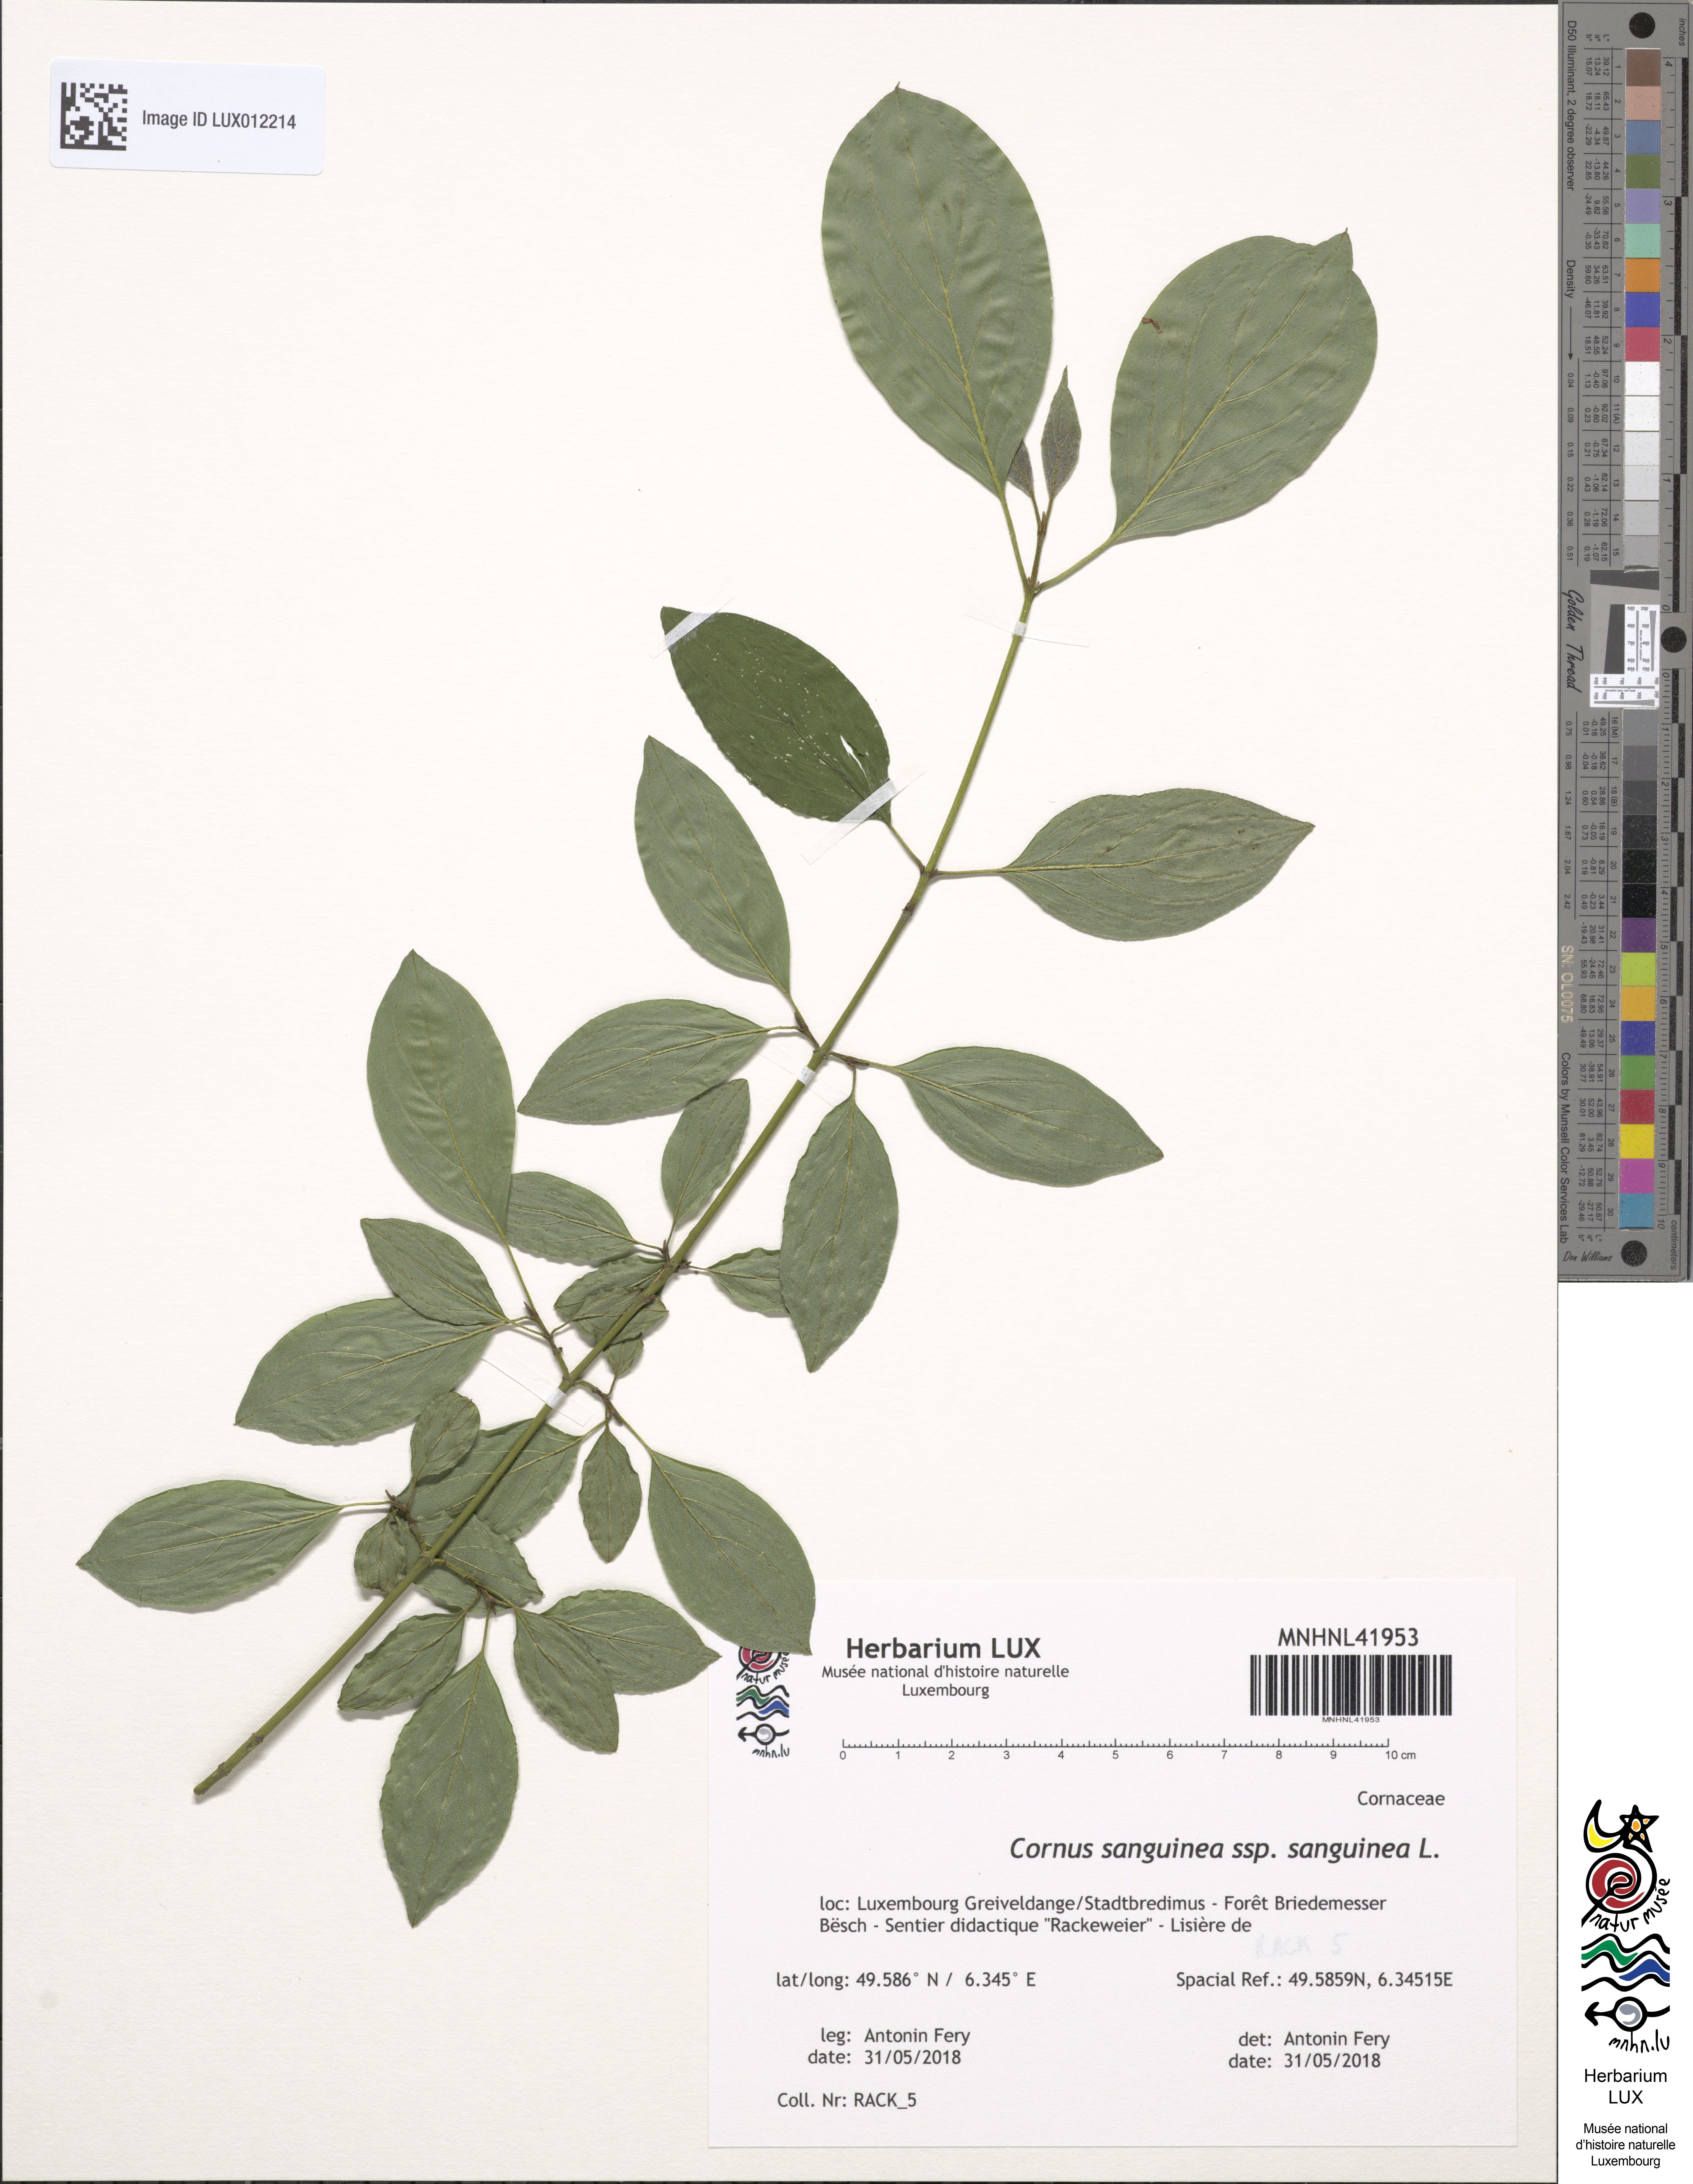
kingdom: Plantae
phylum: Tracheophyta
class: Magnoliopsida
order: Cornales
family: Cornaceae
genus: Cornus
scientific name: Cornus sanguinea
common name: Dogwood
